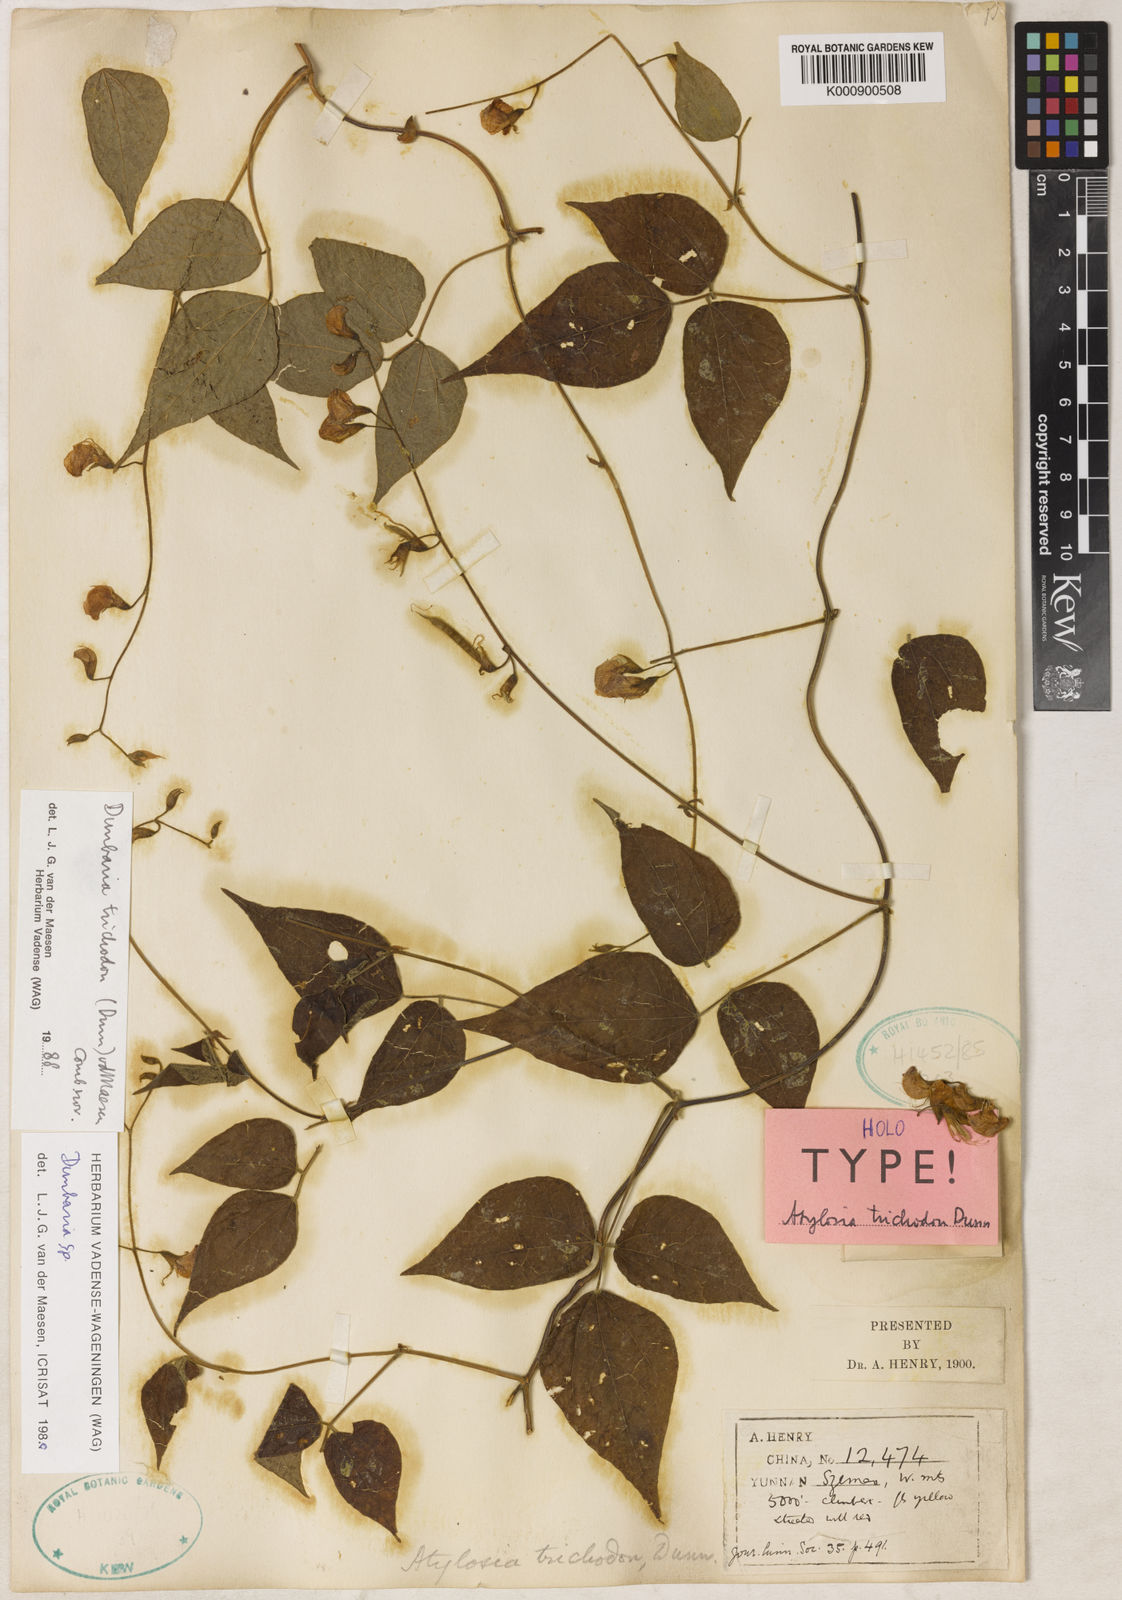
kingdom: Plantae
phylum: Tracheophyta
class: Magnoliopsida
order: Fabales
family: Fabaceae
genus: Dunbaria
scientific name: Dunbaria trichodon
